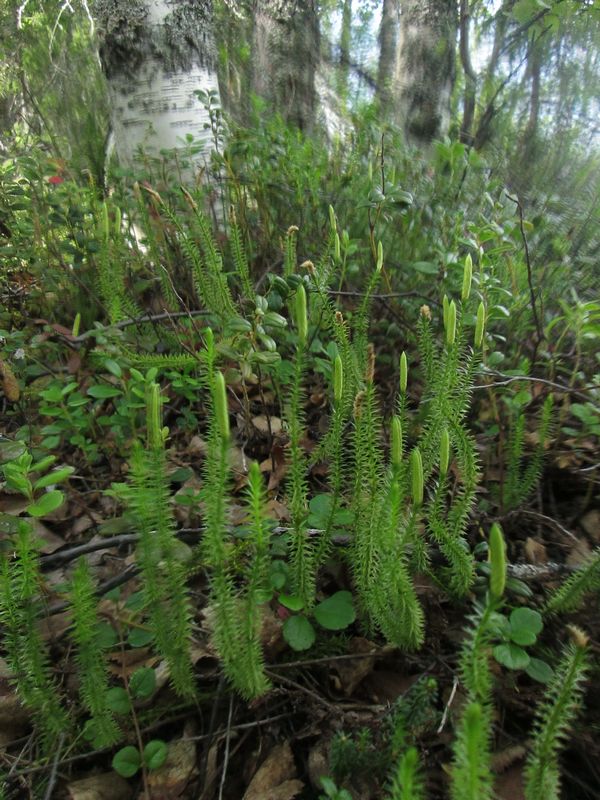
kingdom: Plantae
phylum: Tracheophyta
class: Lycopodiopsida
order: Lycopodiales
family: Lycopodiaceae
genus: Spinulum
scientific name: Spinulum annotinum
